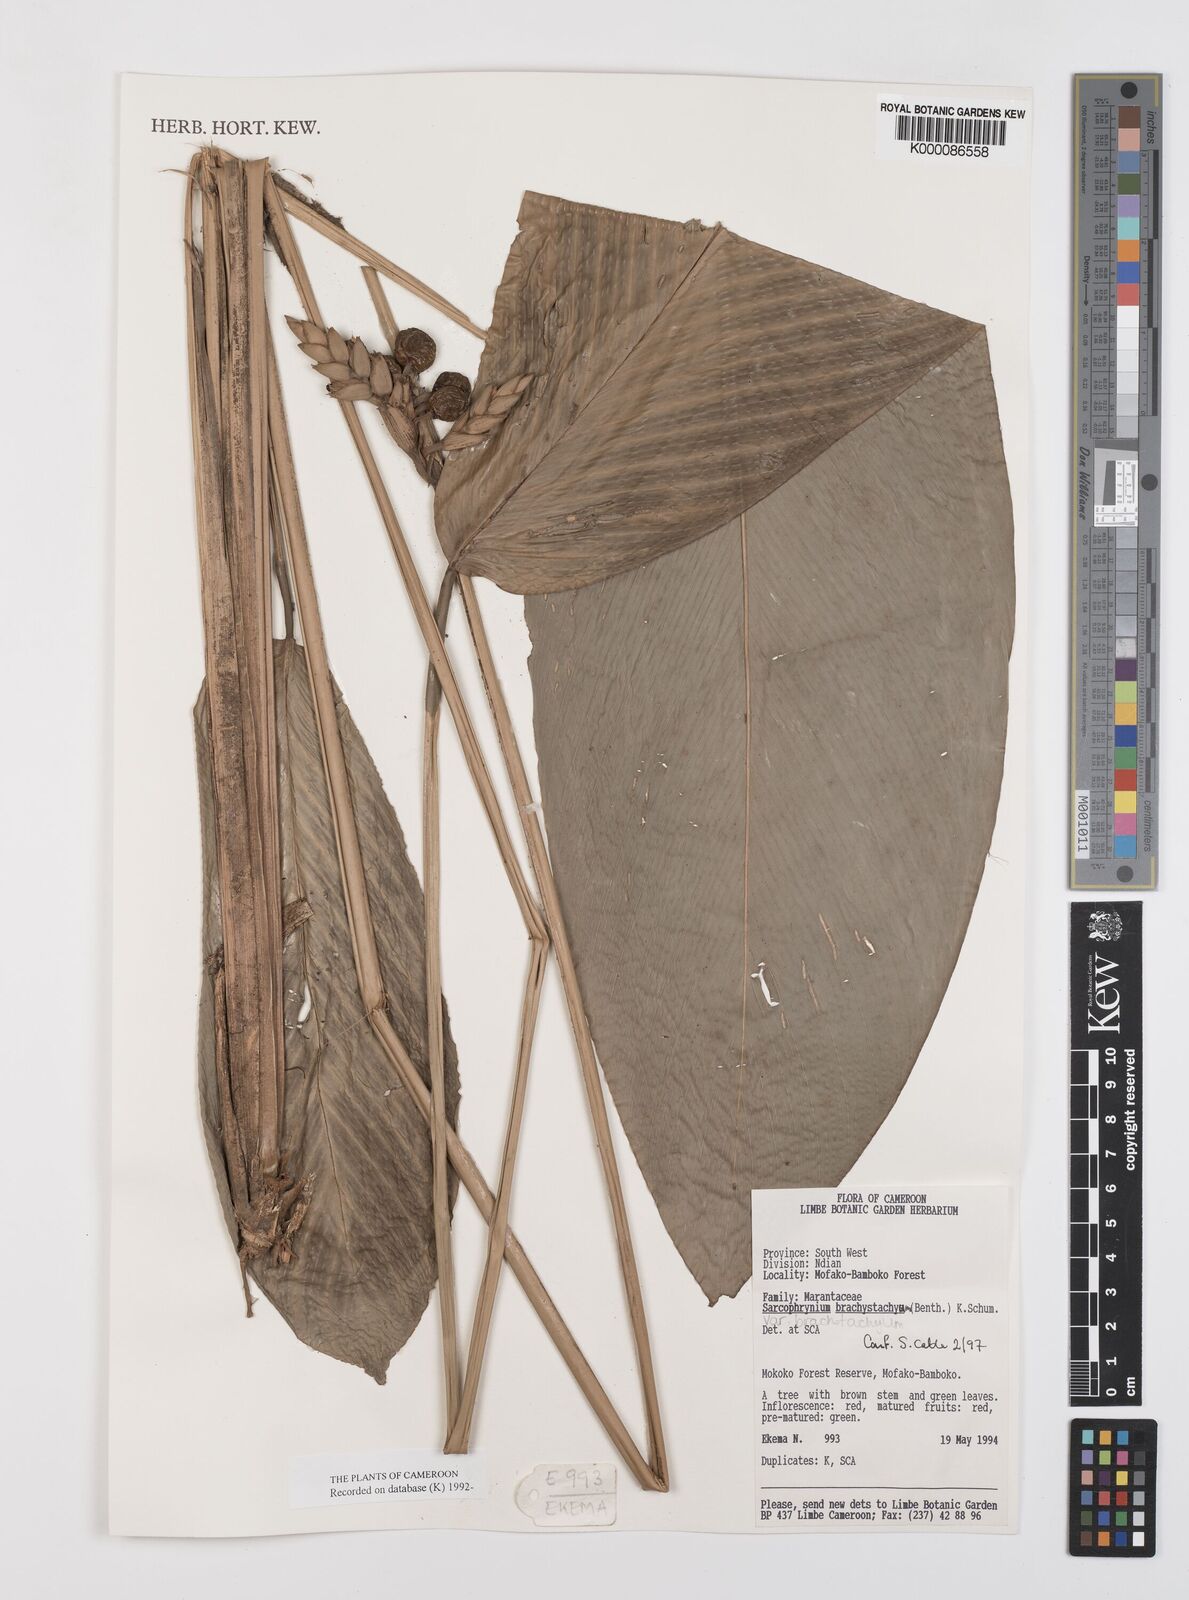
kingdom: Plantae
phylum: Tracheophyta
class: Liliopsida
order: Zingiberales
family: Marantaceae
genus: Sarcophrynium
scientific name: Sarcophrynium
